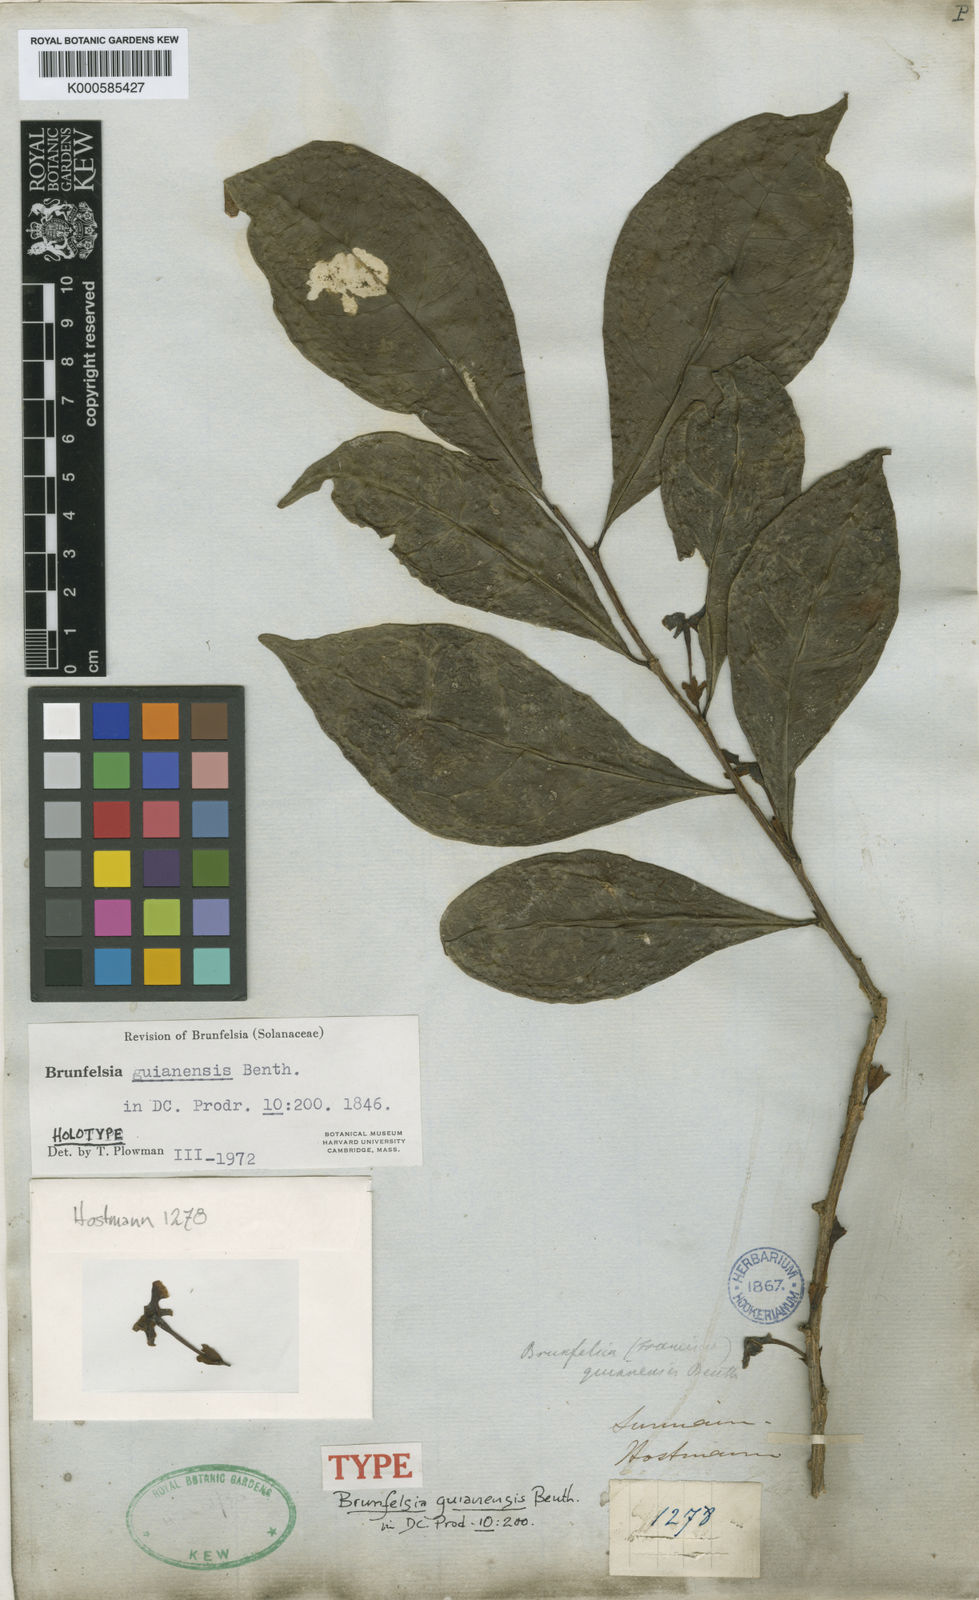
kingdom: Plantae
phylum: Tracheophyta
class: Magnoliopsida
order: Solanales
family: Solanaceae
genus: Brunfelsia
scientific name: Brunfelsia guianensis
